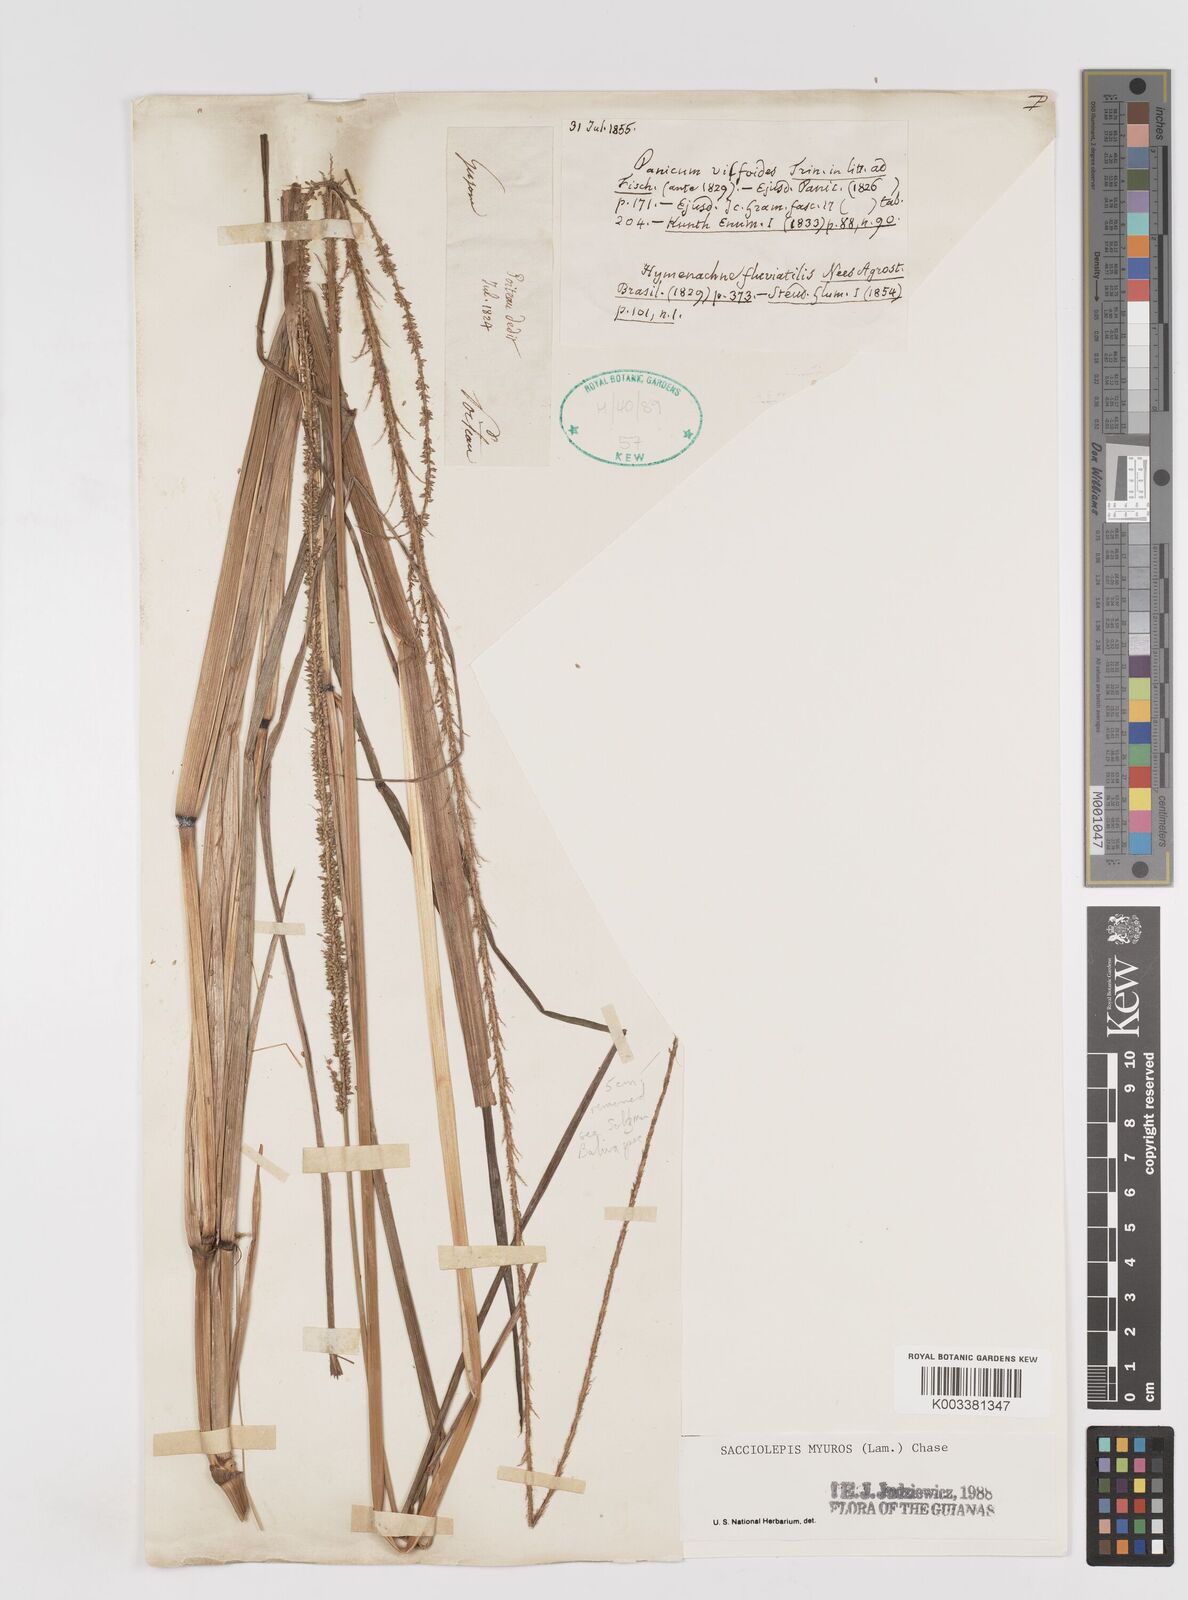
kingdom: Plantae
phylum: Tracheophyta
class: Liliopsida
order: Poales
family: Poaceae
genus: Sacciolepis
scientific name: Sacciolepis myuros
